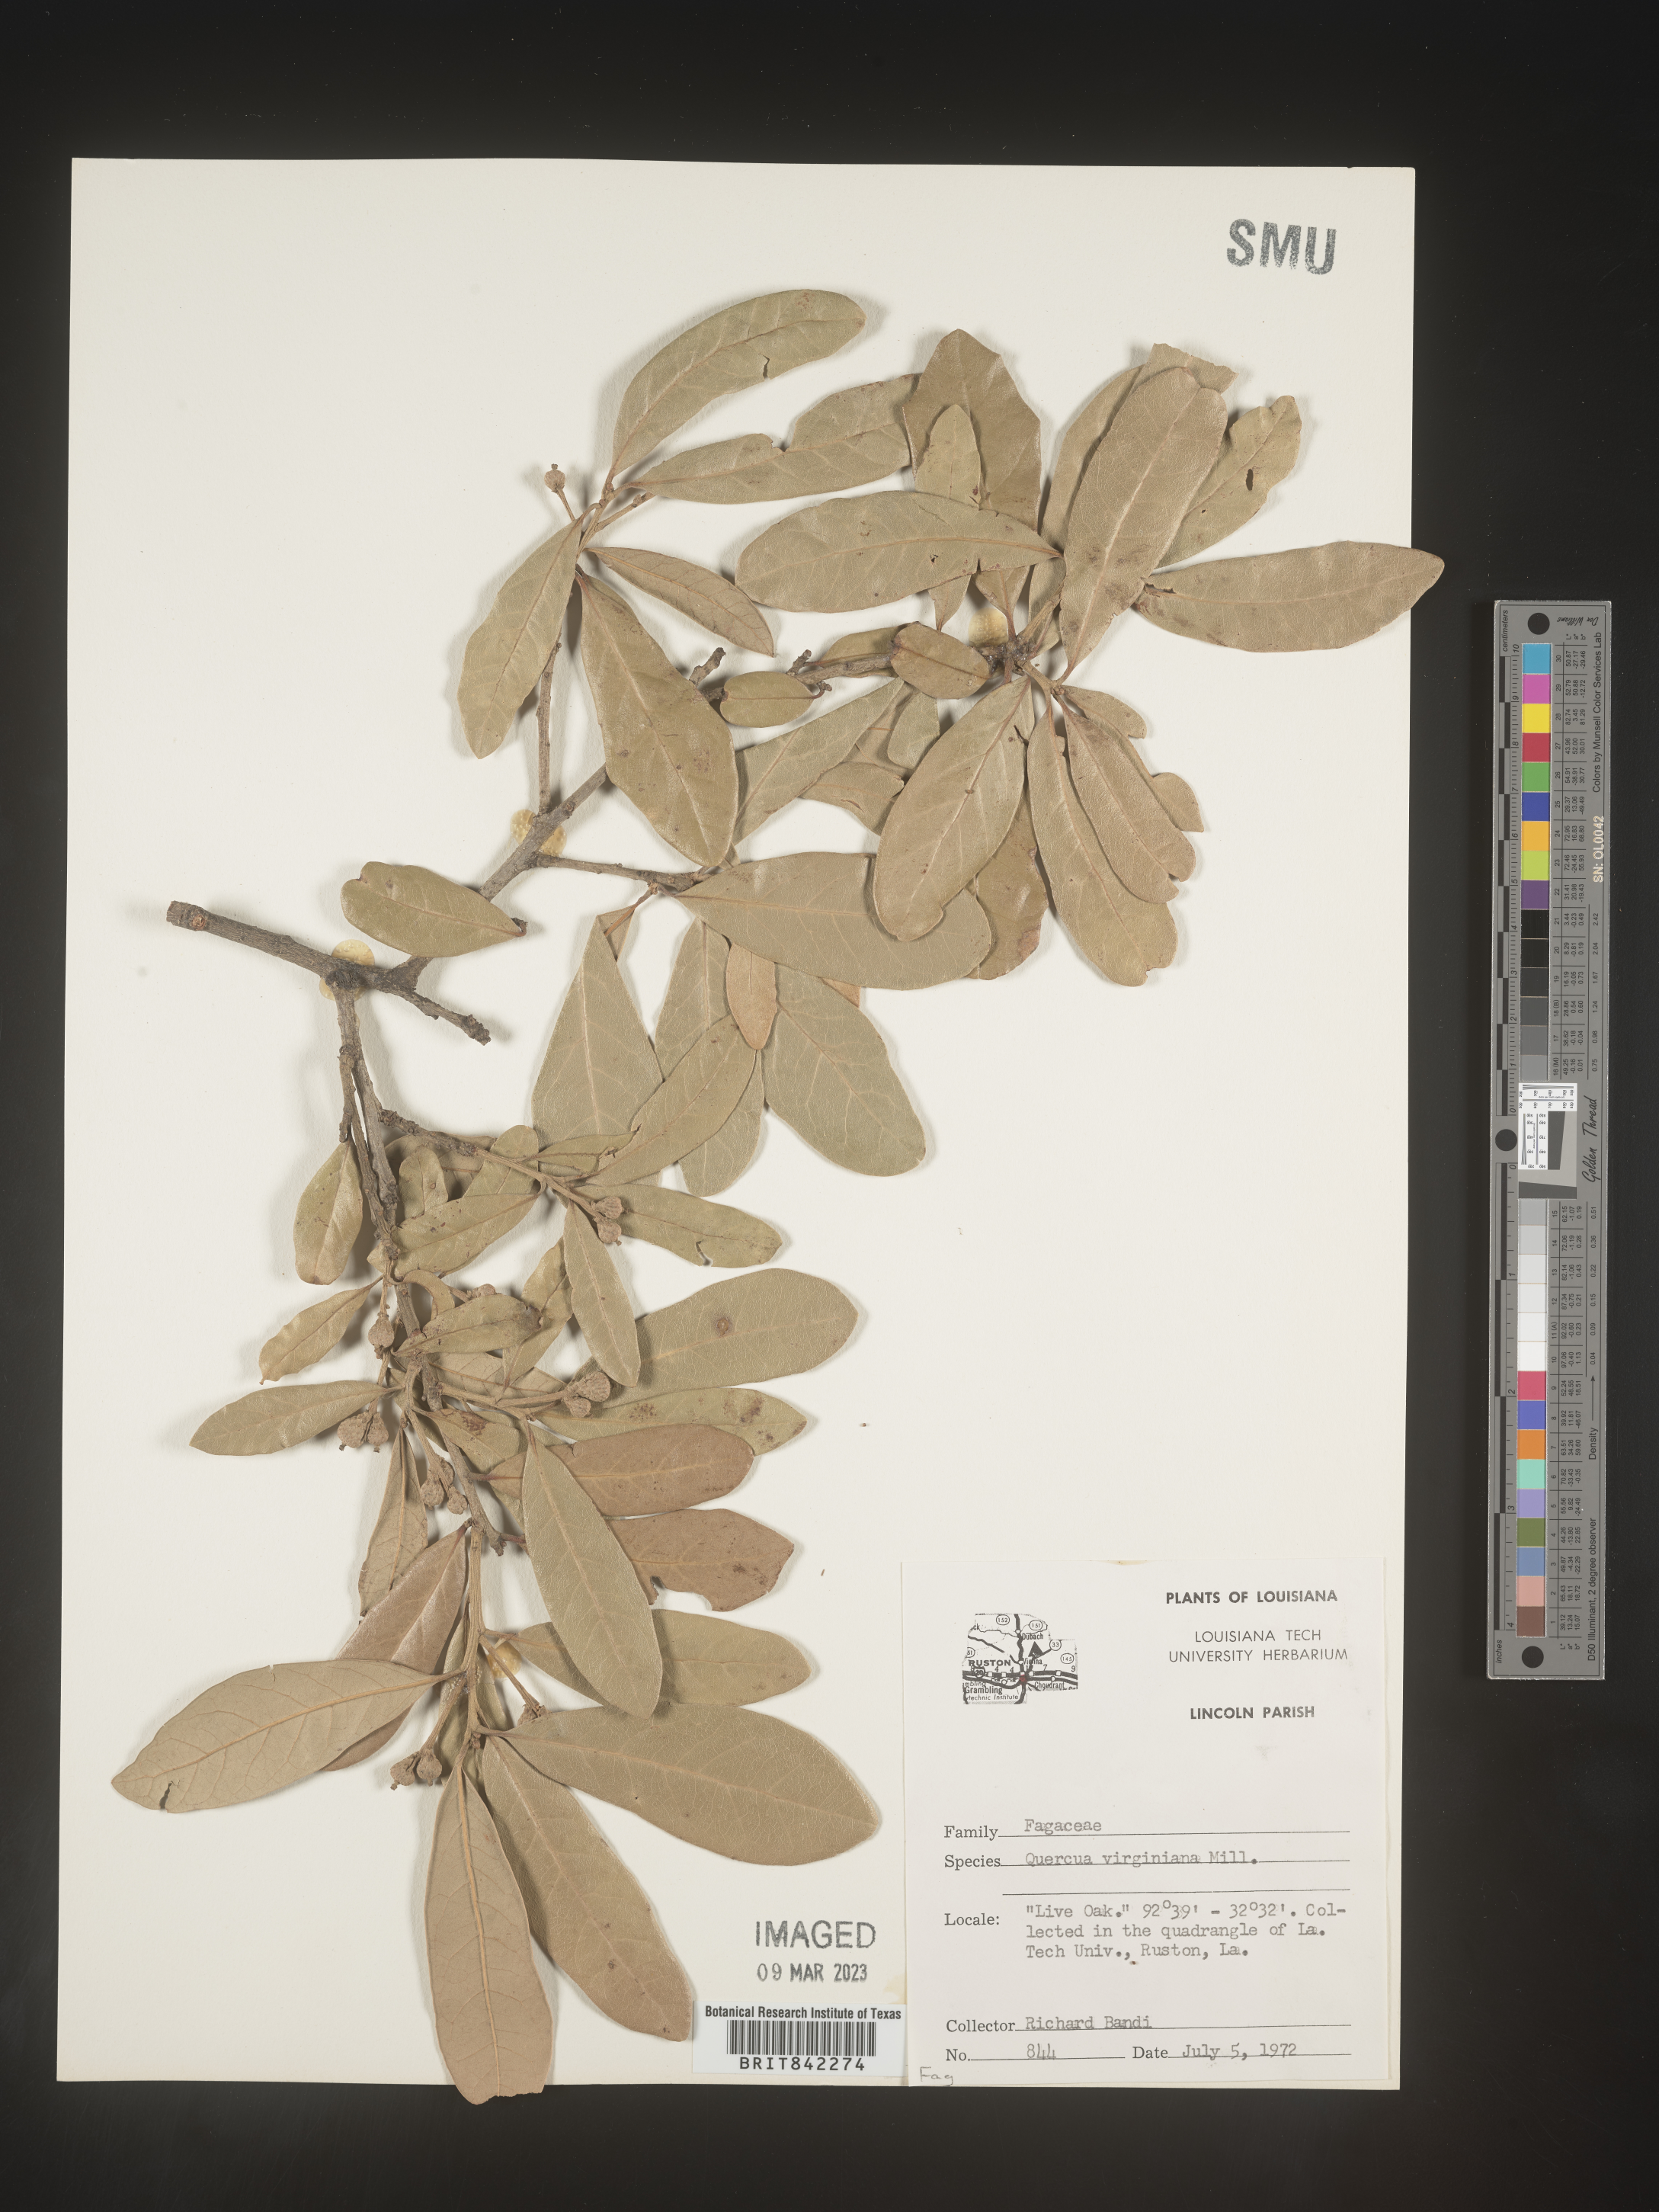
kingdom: Plantae
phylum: Tracheophyta
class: Magnoliopsida
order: Fagales
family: Fagaceae
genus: Quercus
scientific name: Quercus virginiana
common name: Southern live oak
